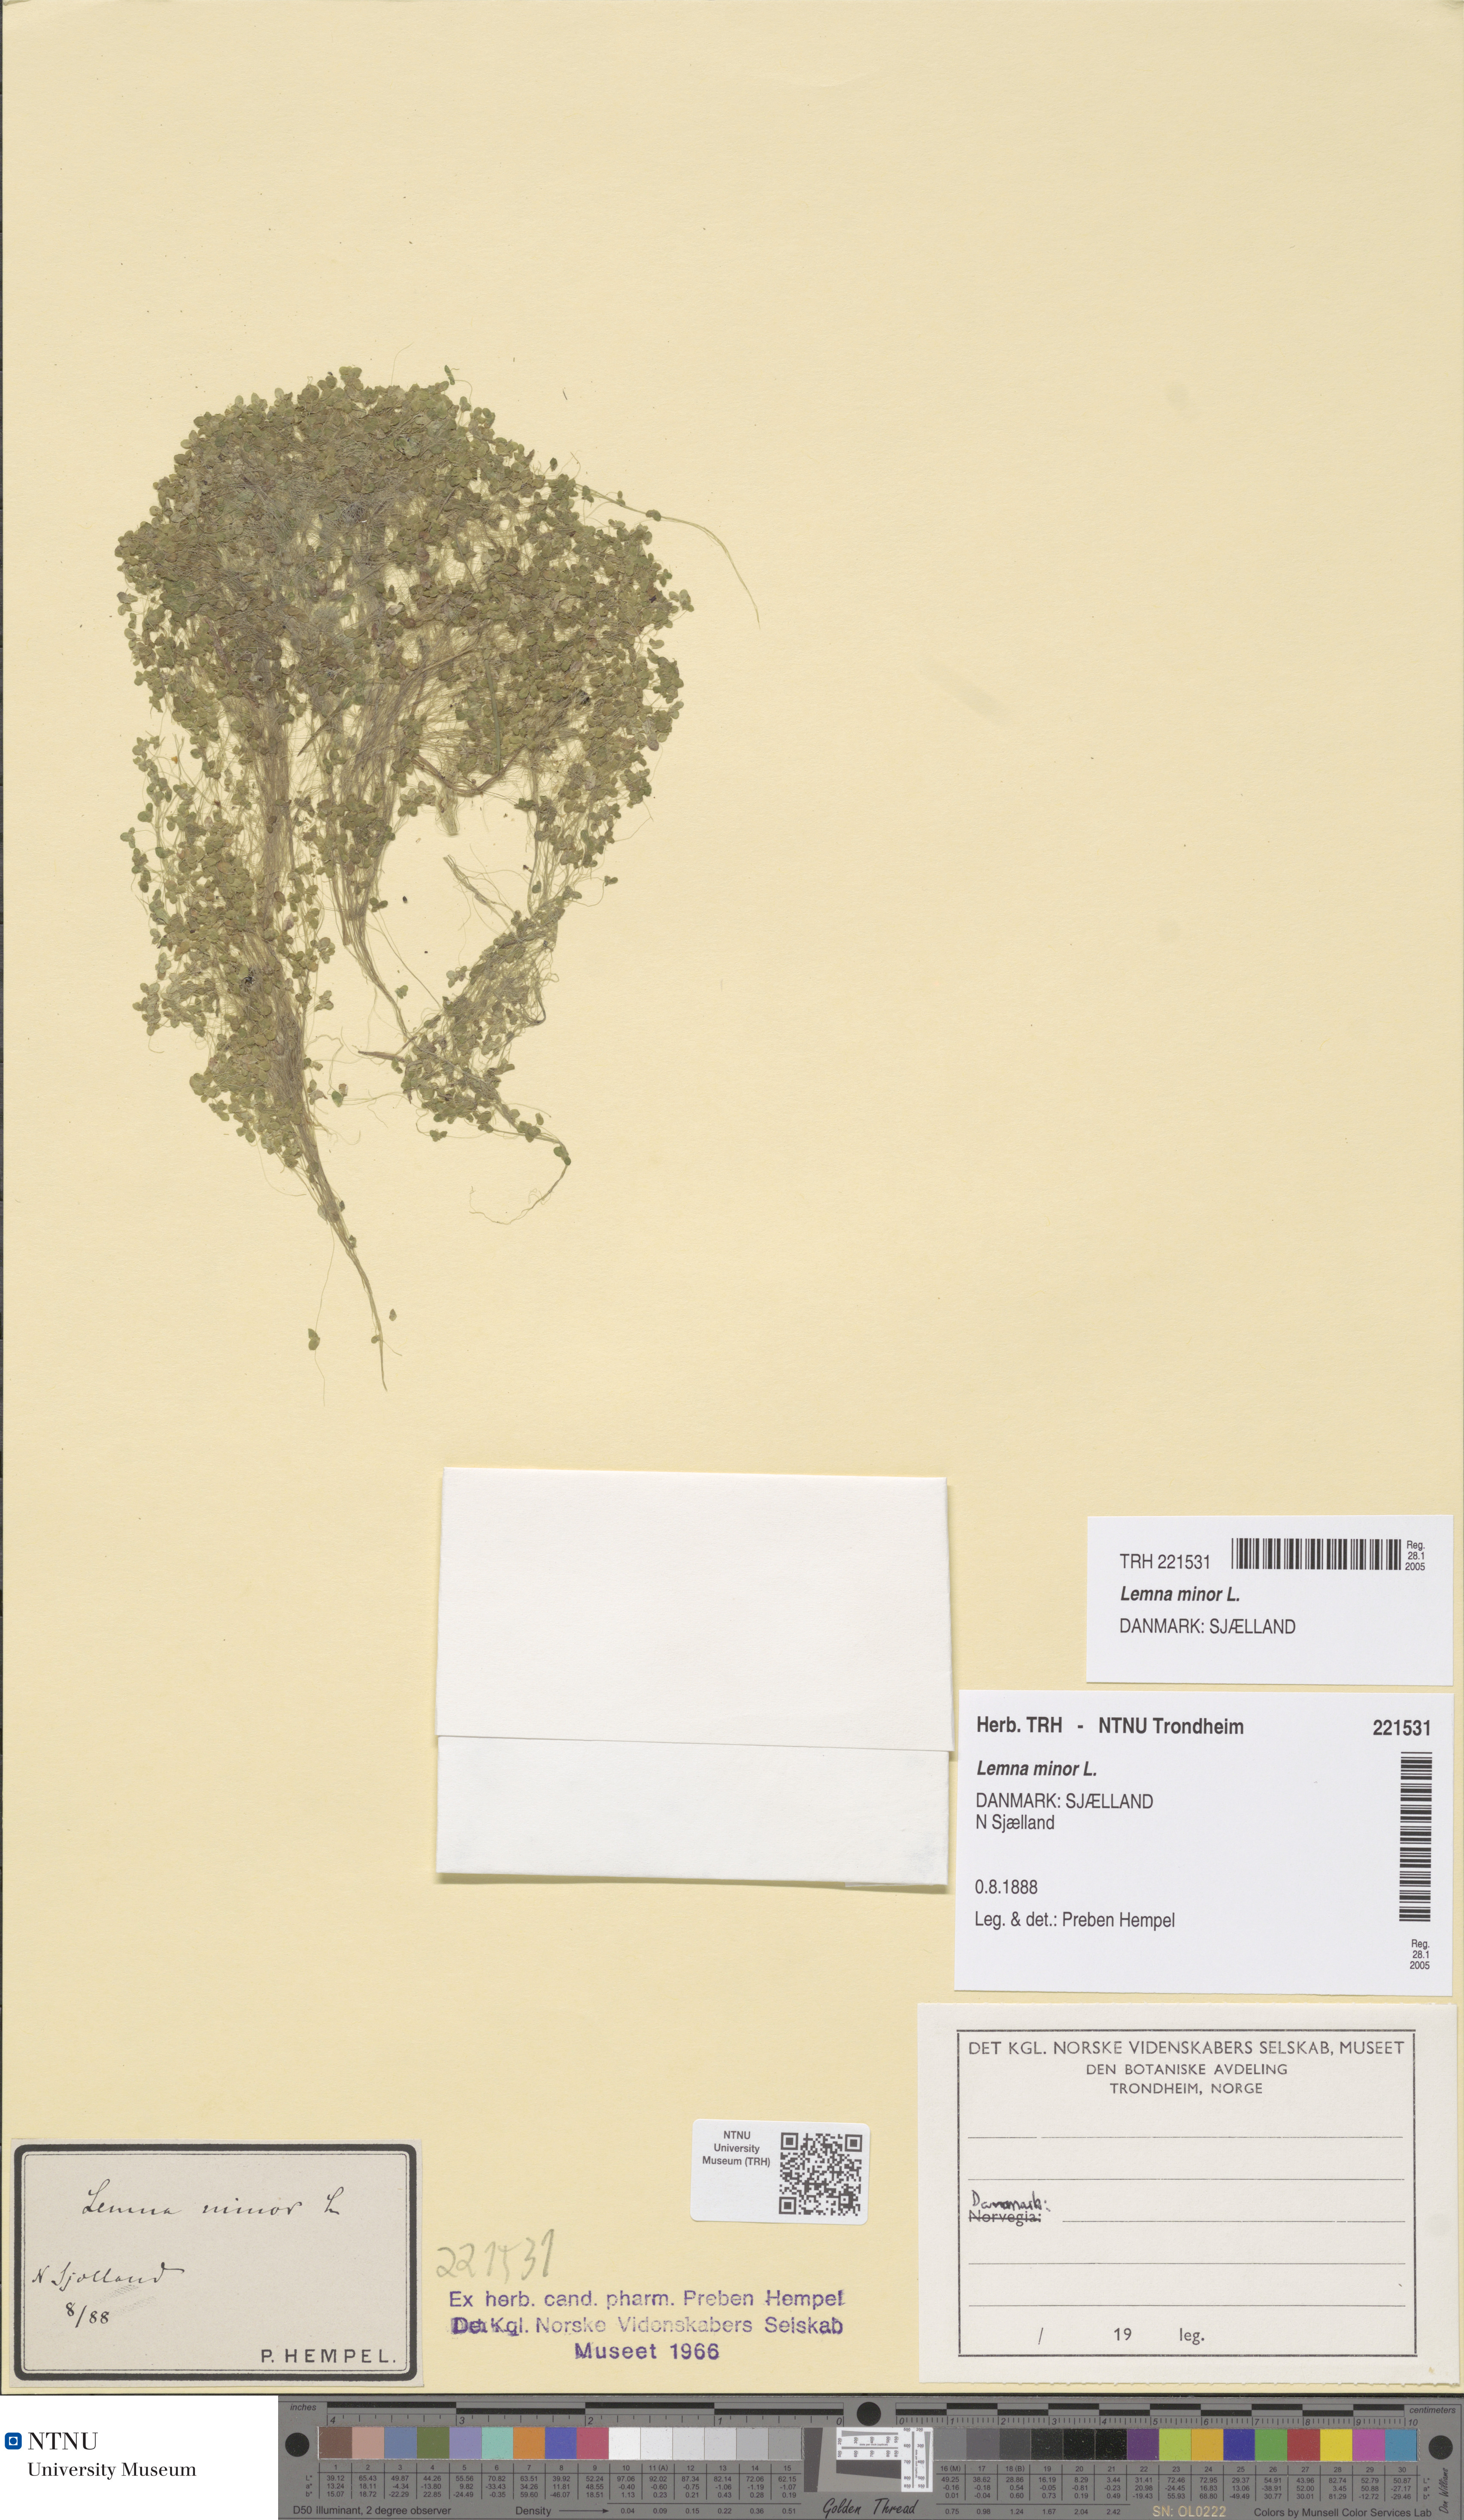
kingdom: Plantae
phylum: Tracheophyta
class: Liliopsida
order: Alismatales
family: Araceae
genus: Lemna
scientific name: Lemna minor
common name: Common duckweed
